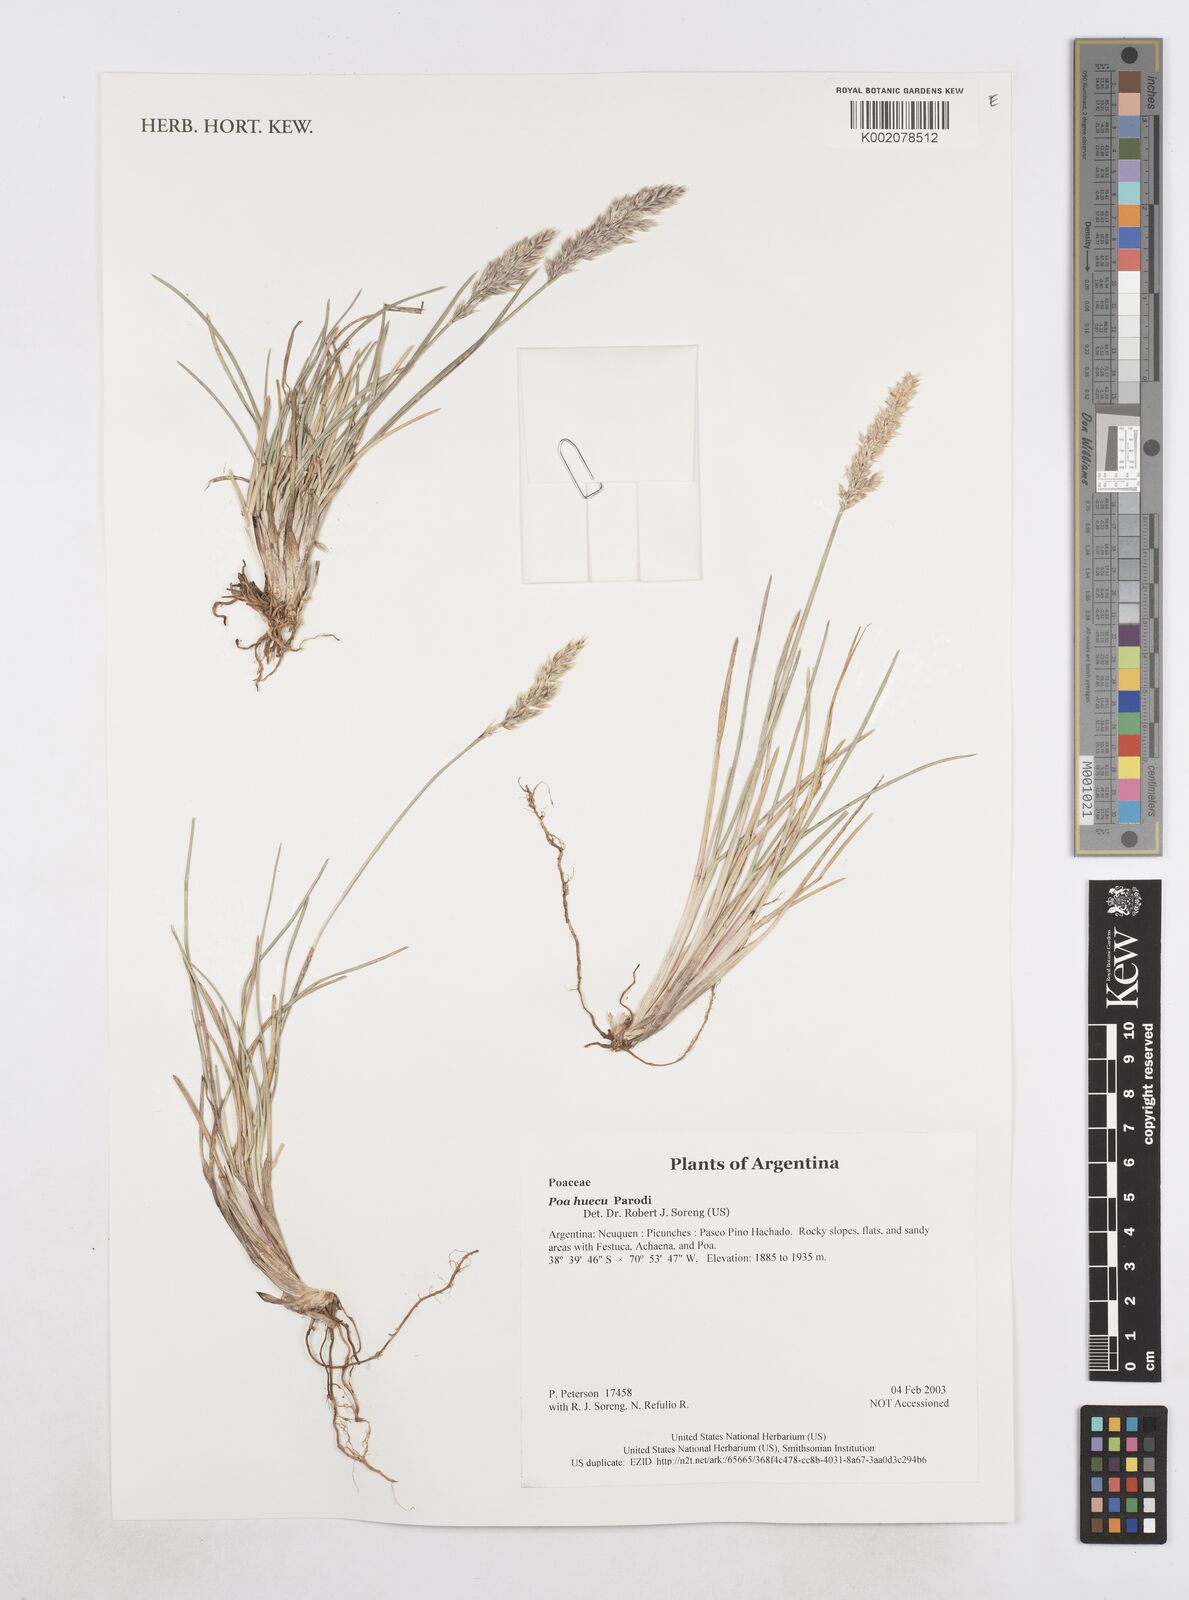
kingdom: Plantae
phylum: Tracheophyta
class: Liliopsida
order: Poales
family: Poaceae
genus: Poa
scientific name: Poa huecu
